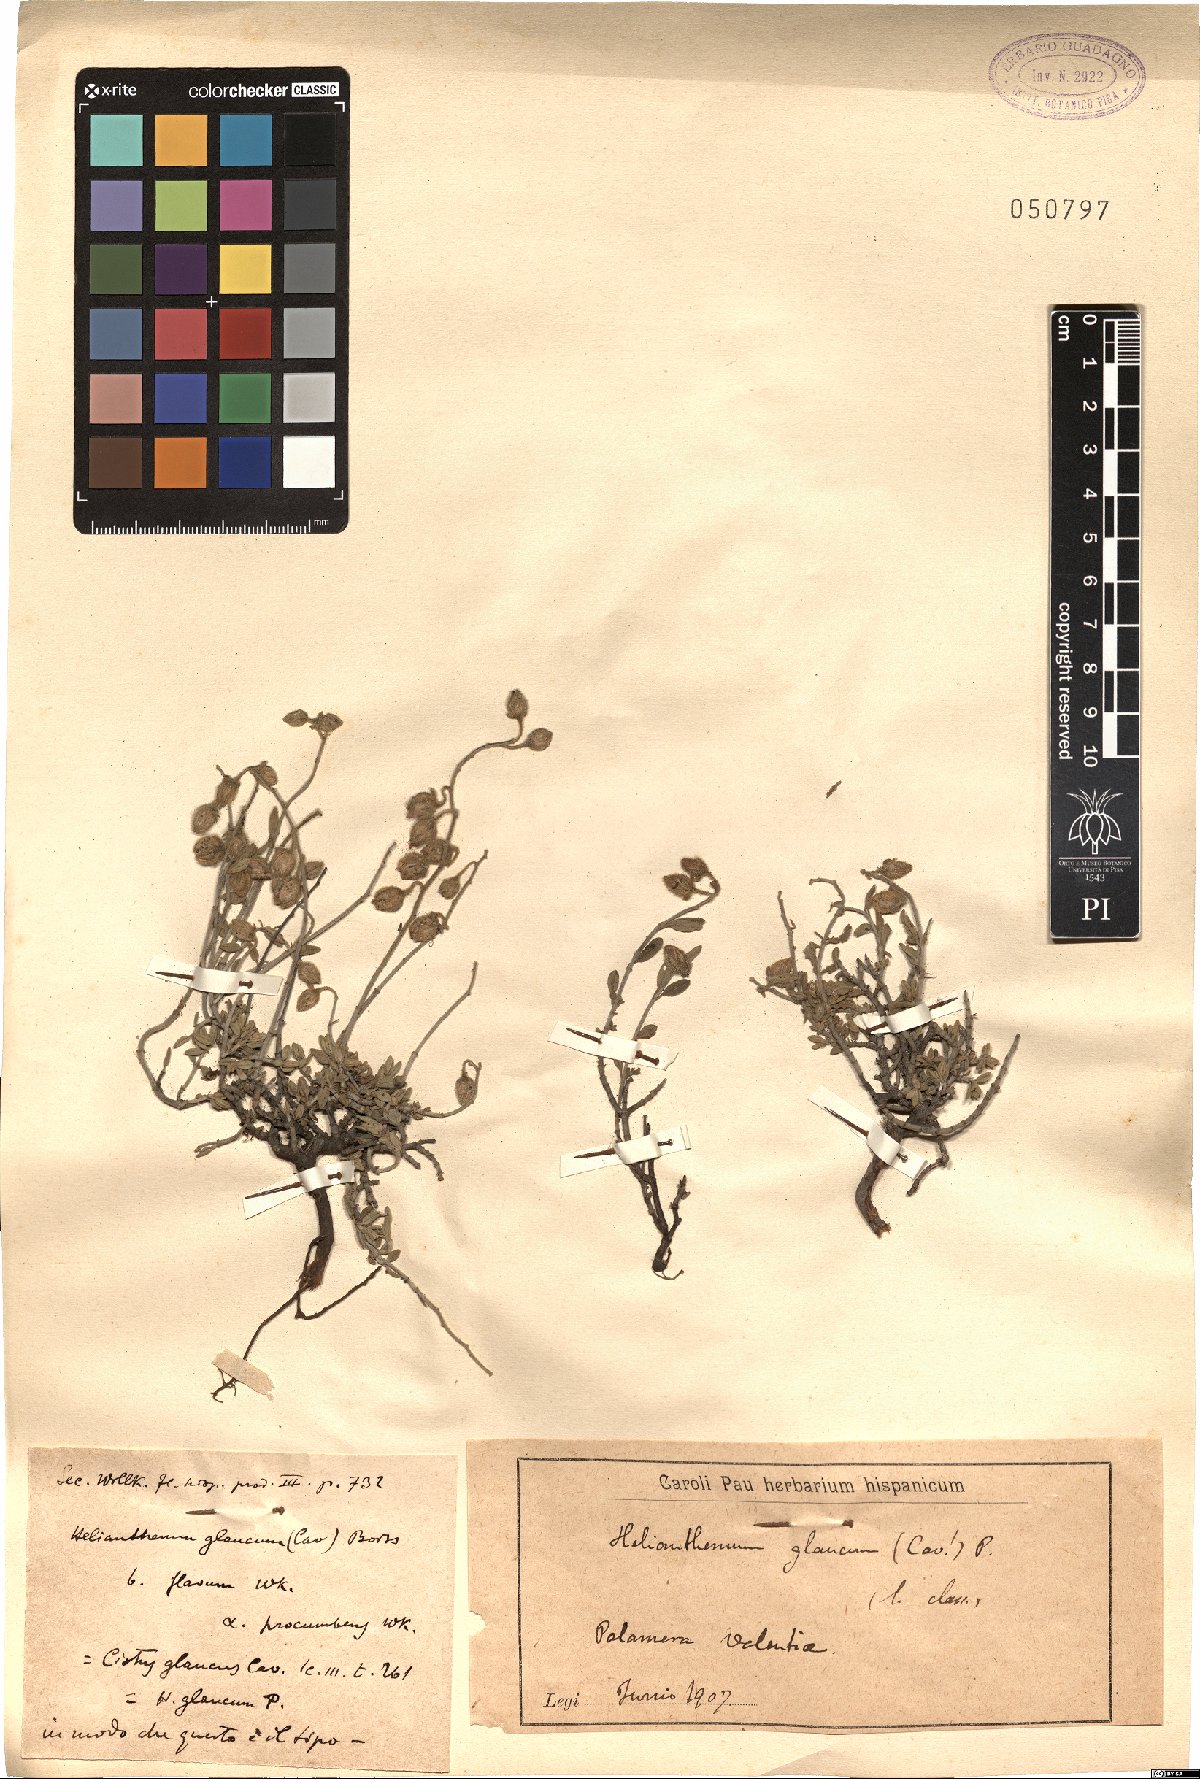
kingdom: Plantae
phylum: Tracheophyta
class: Magnoliopsida
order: Malvales
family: Cistaceae
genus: Helianthemum
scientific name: Helianthemum croceum
